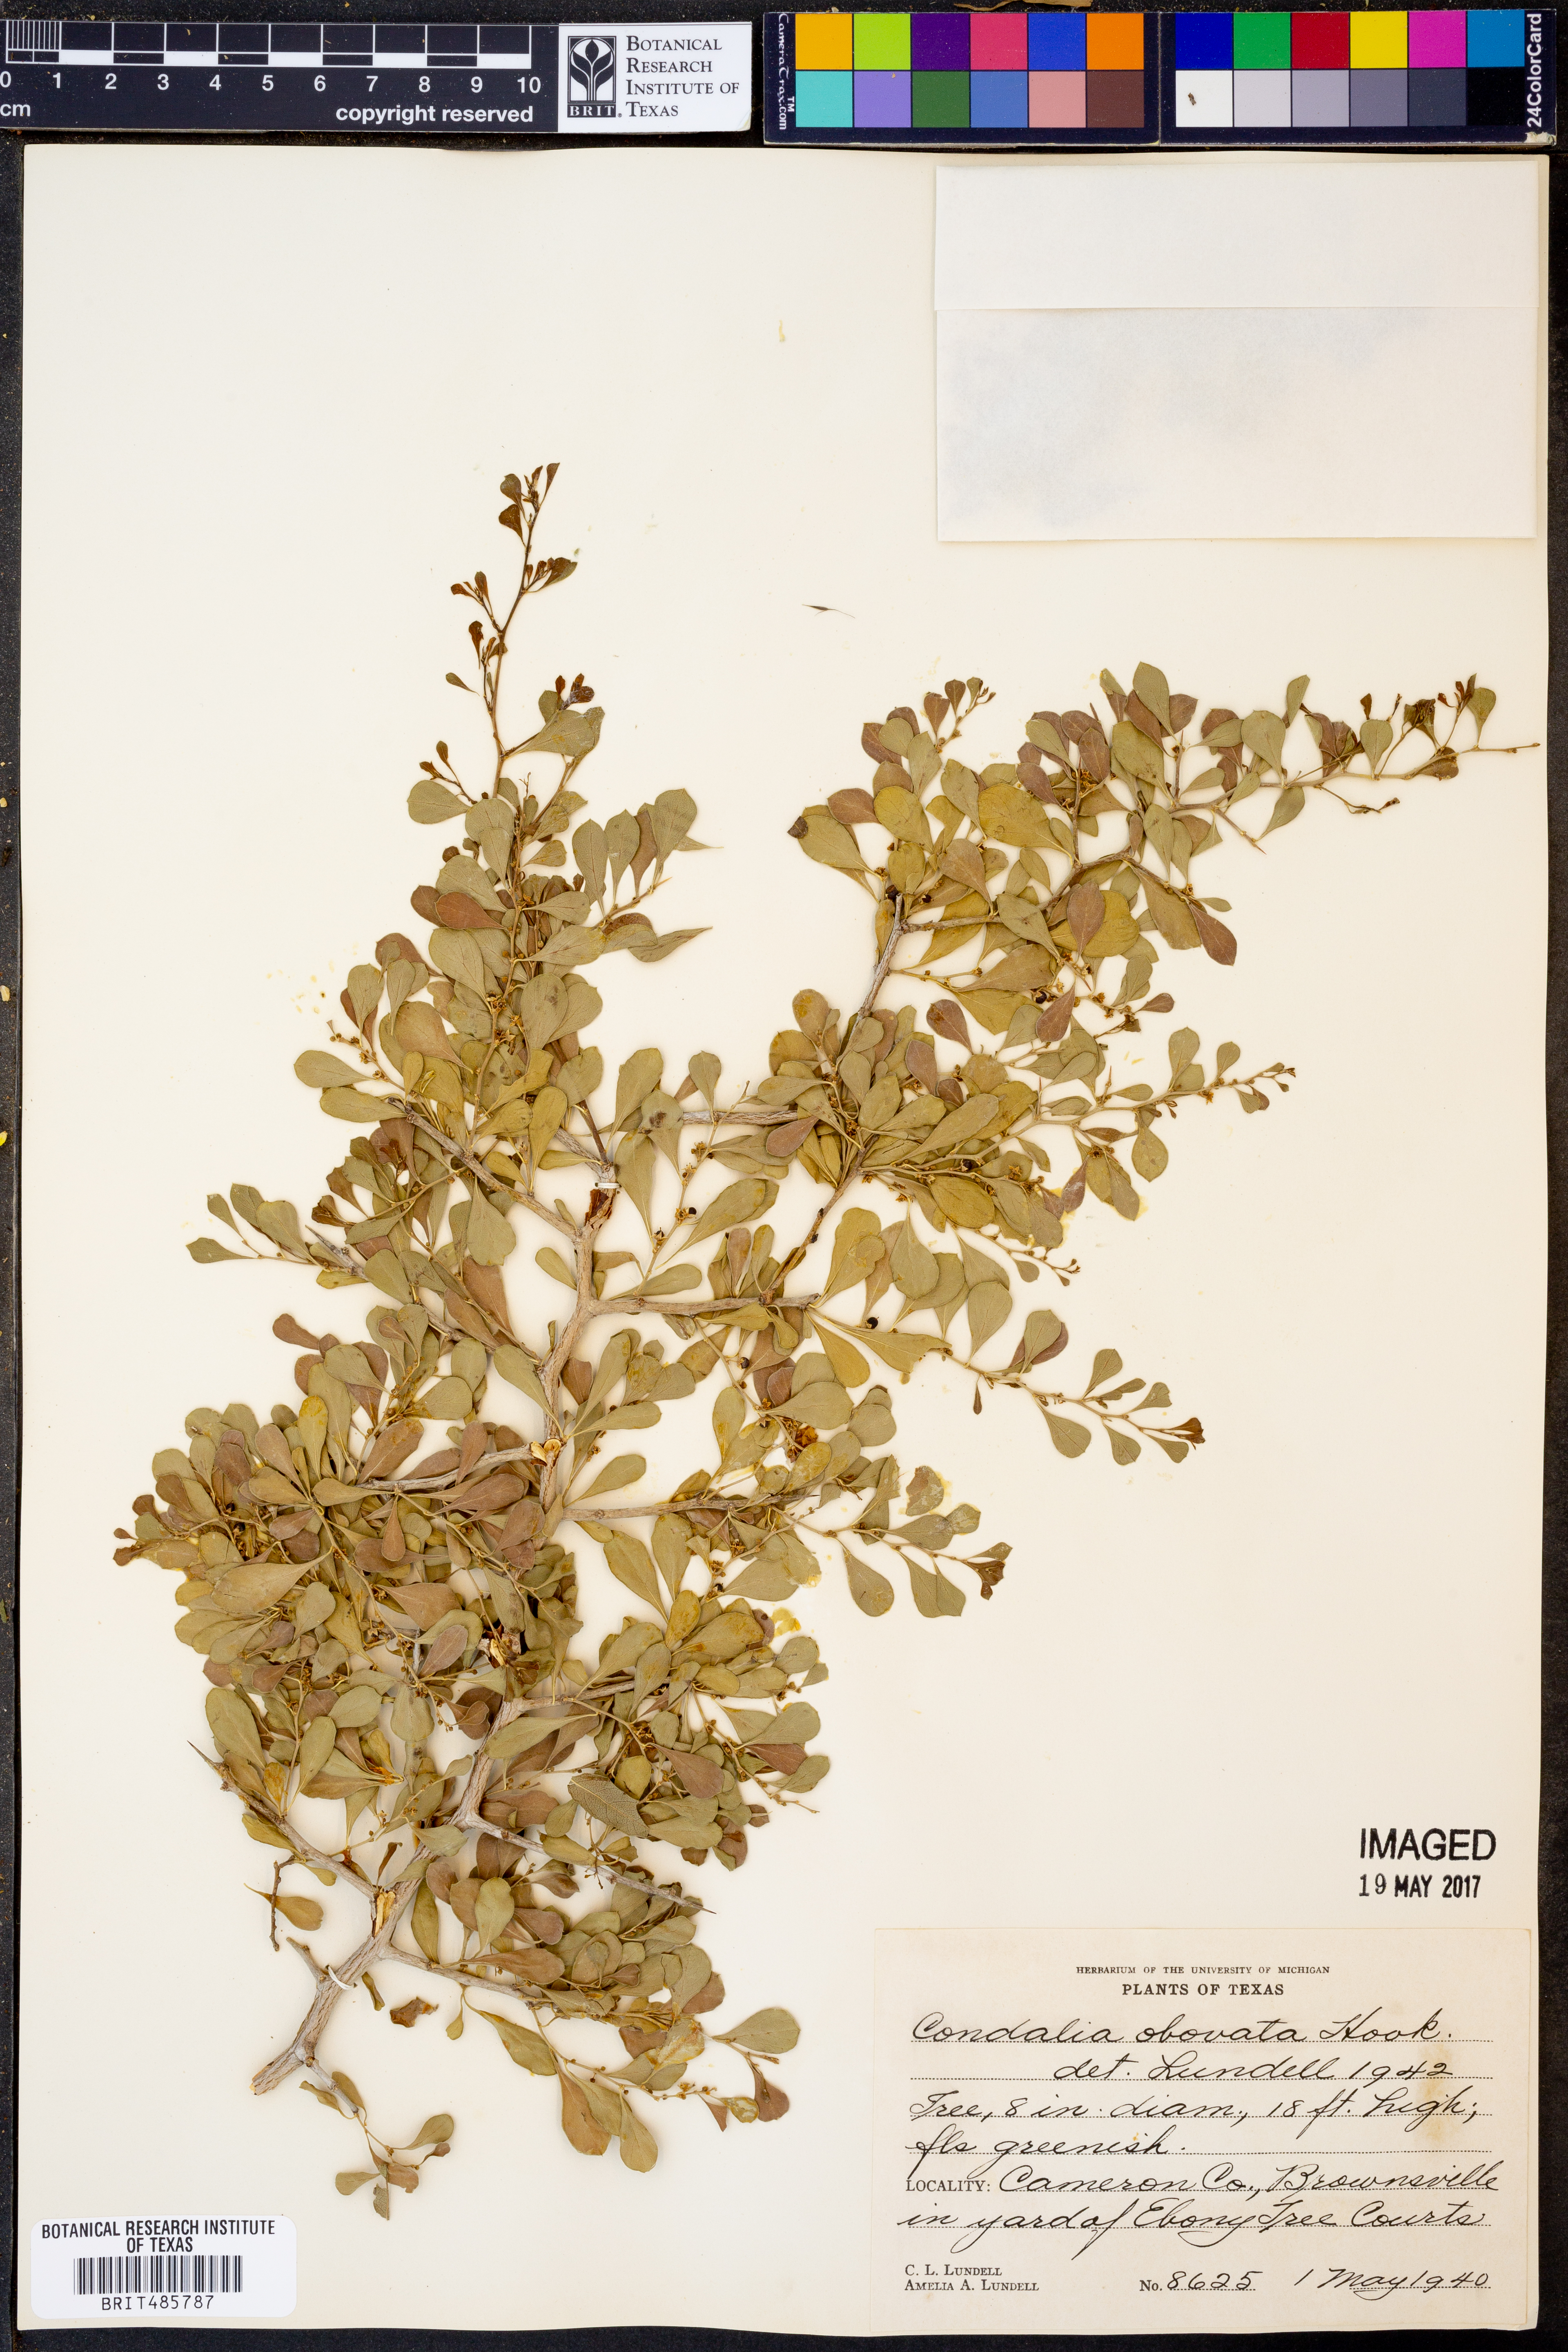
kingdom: Plantae
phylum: Tracheophyta
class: Magnoliopsida
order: Rosales
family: Rhamnaceae
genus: Condalia
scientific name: Condalia hookeri
